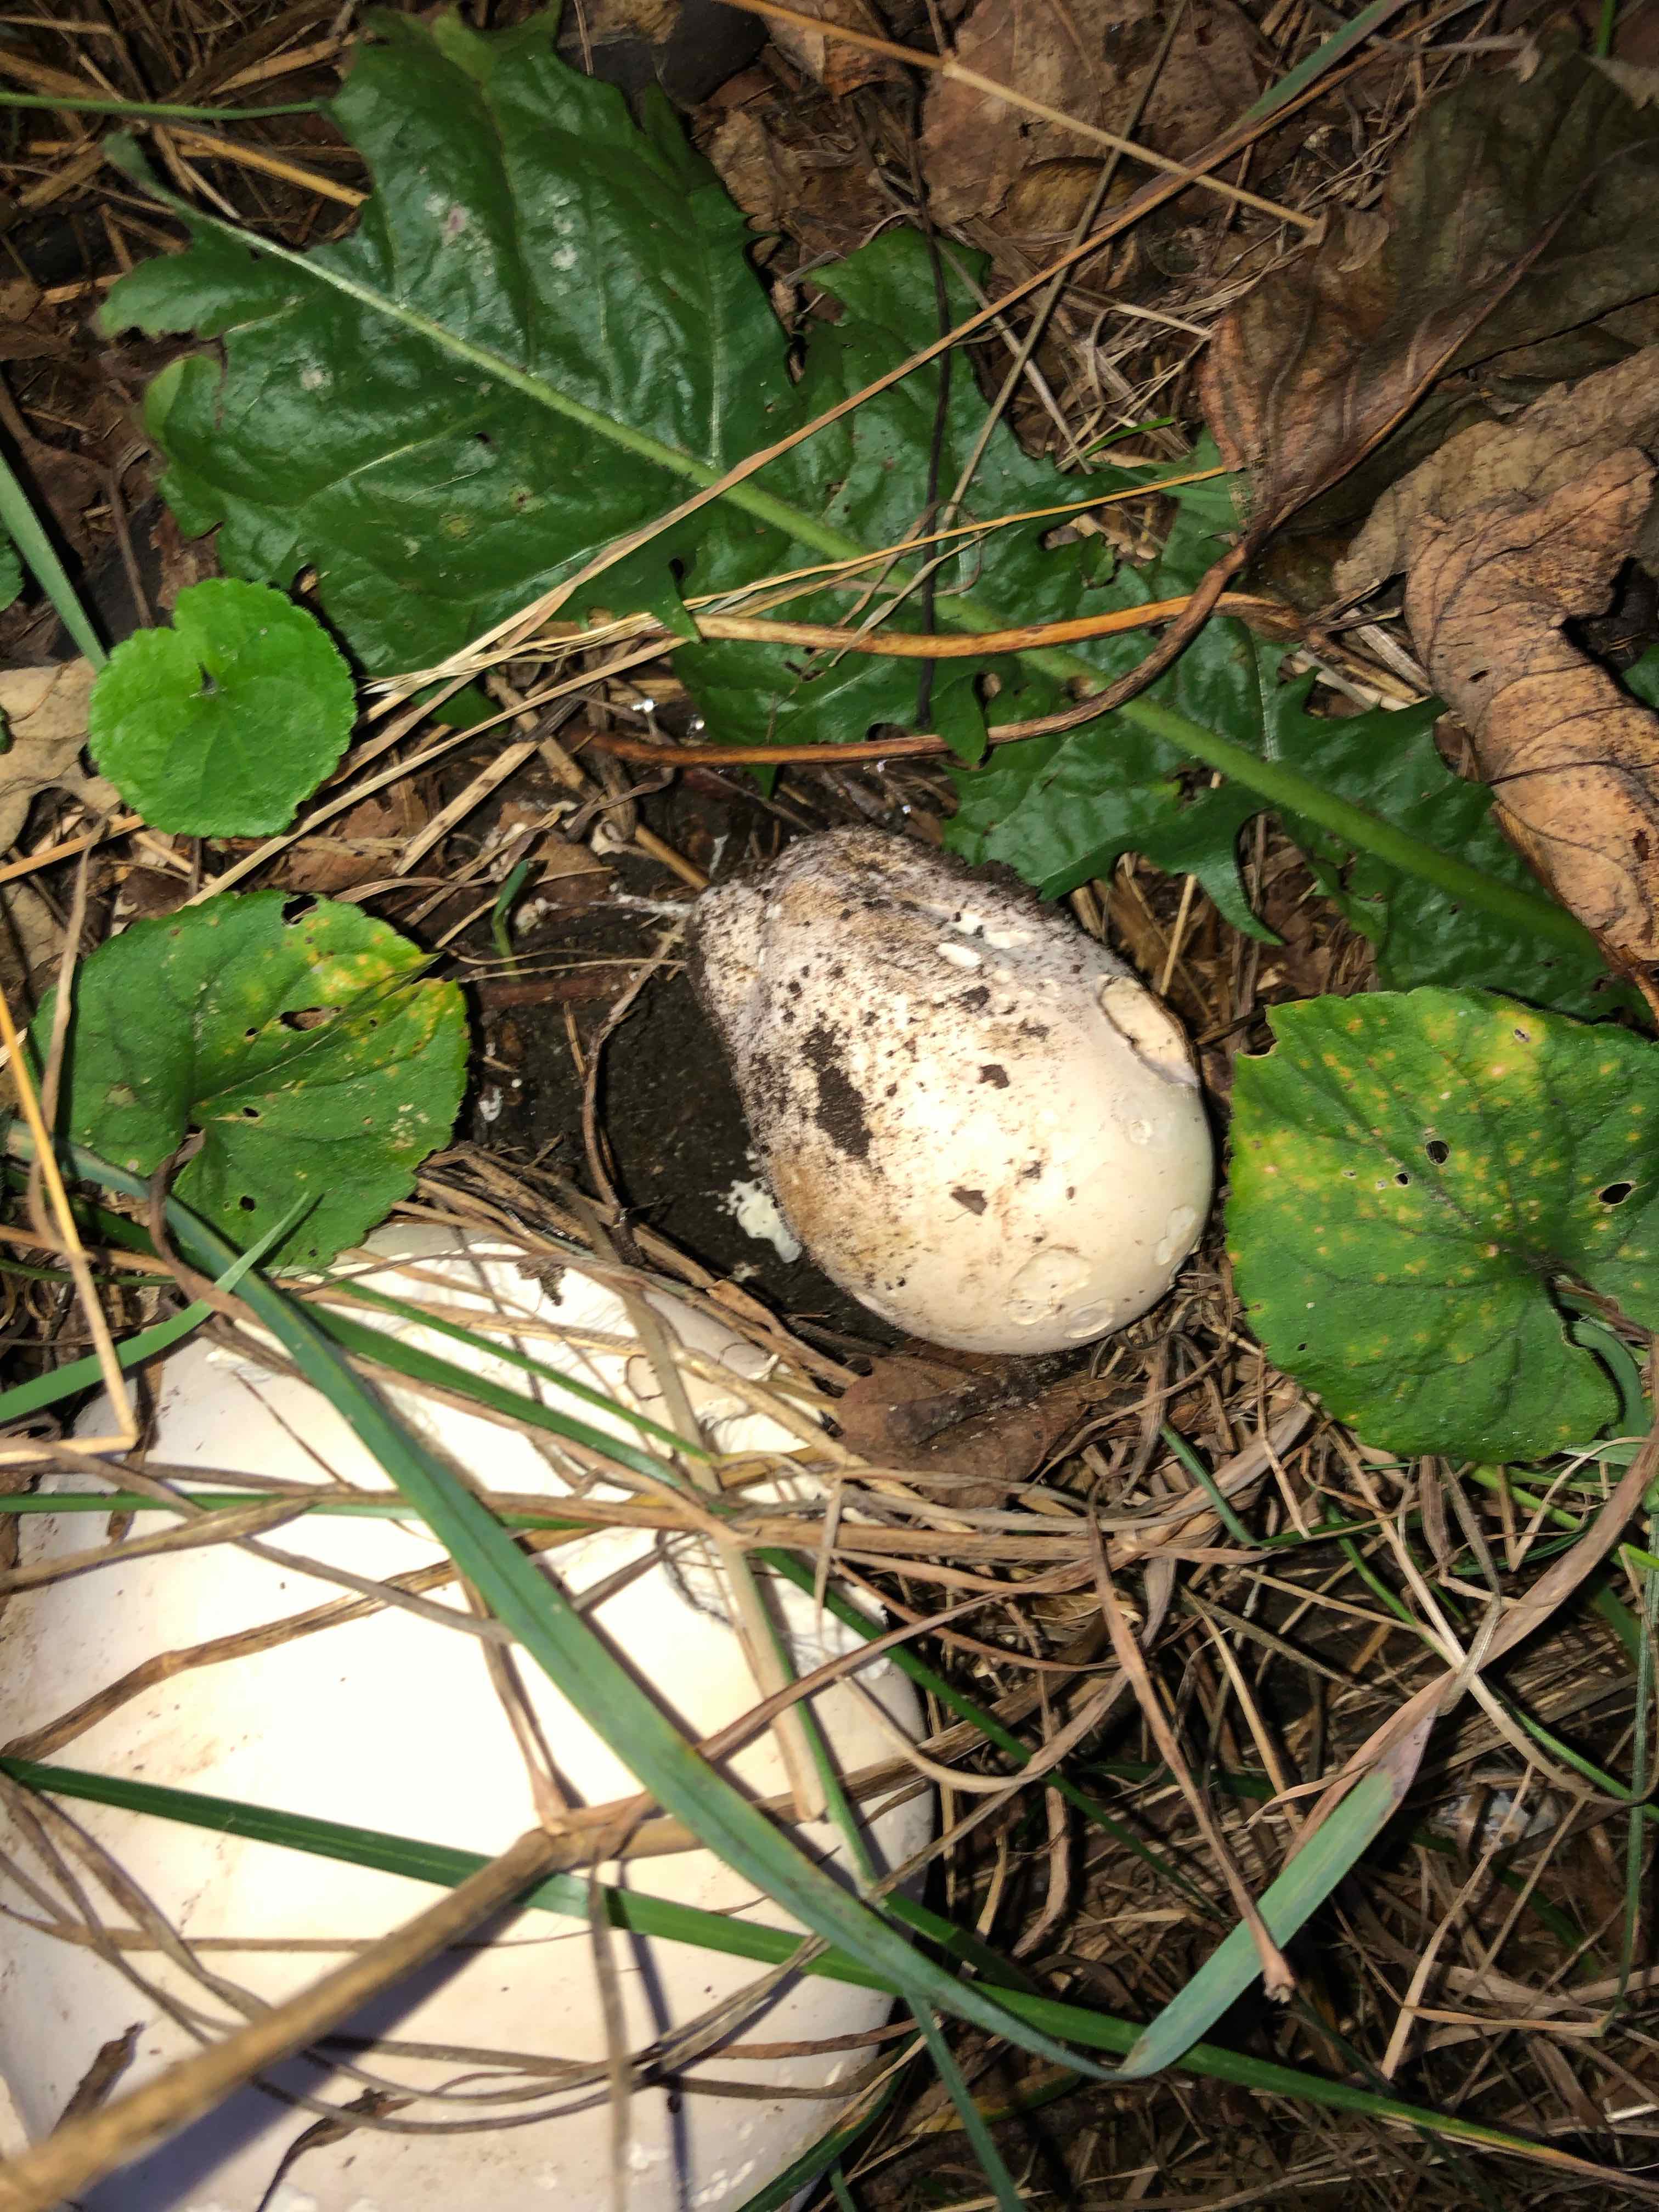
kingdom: Fungi
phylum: Basidiomycota
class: Agaricomycetes
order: Agaricales
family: Lycoperdaceae
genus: Calvatia
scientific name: Calvatia gigantea
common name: kæmpestøvbold
